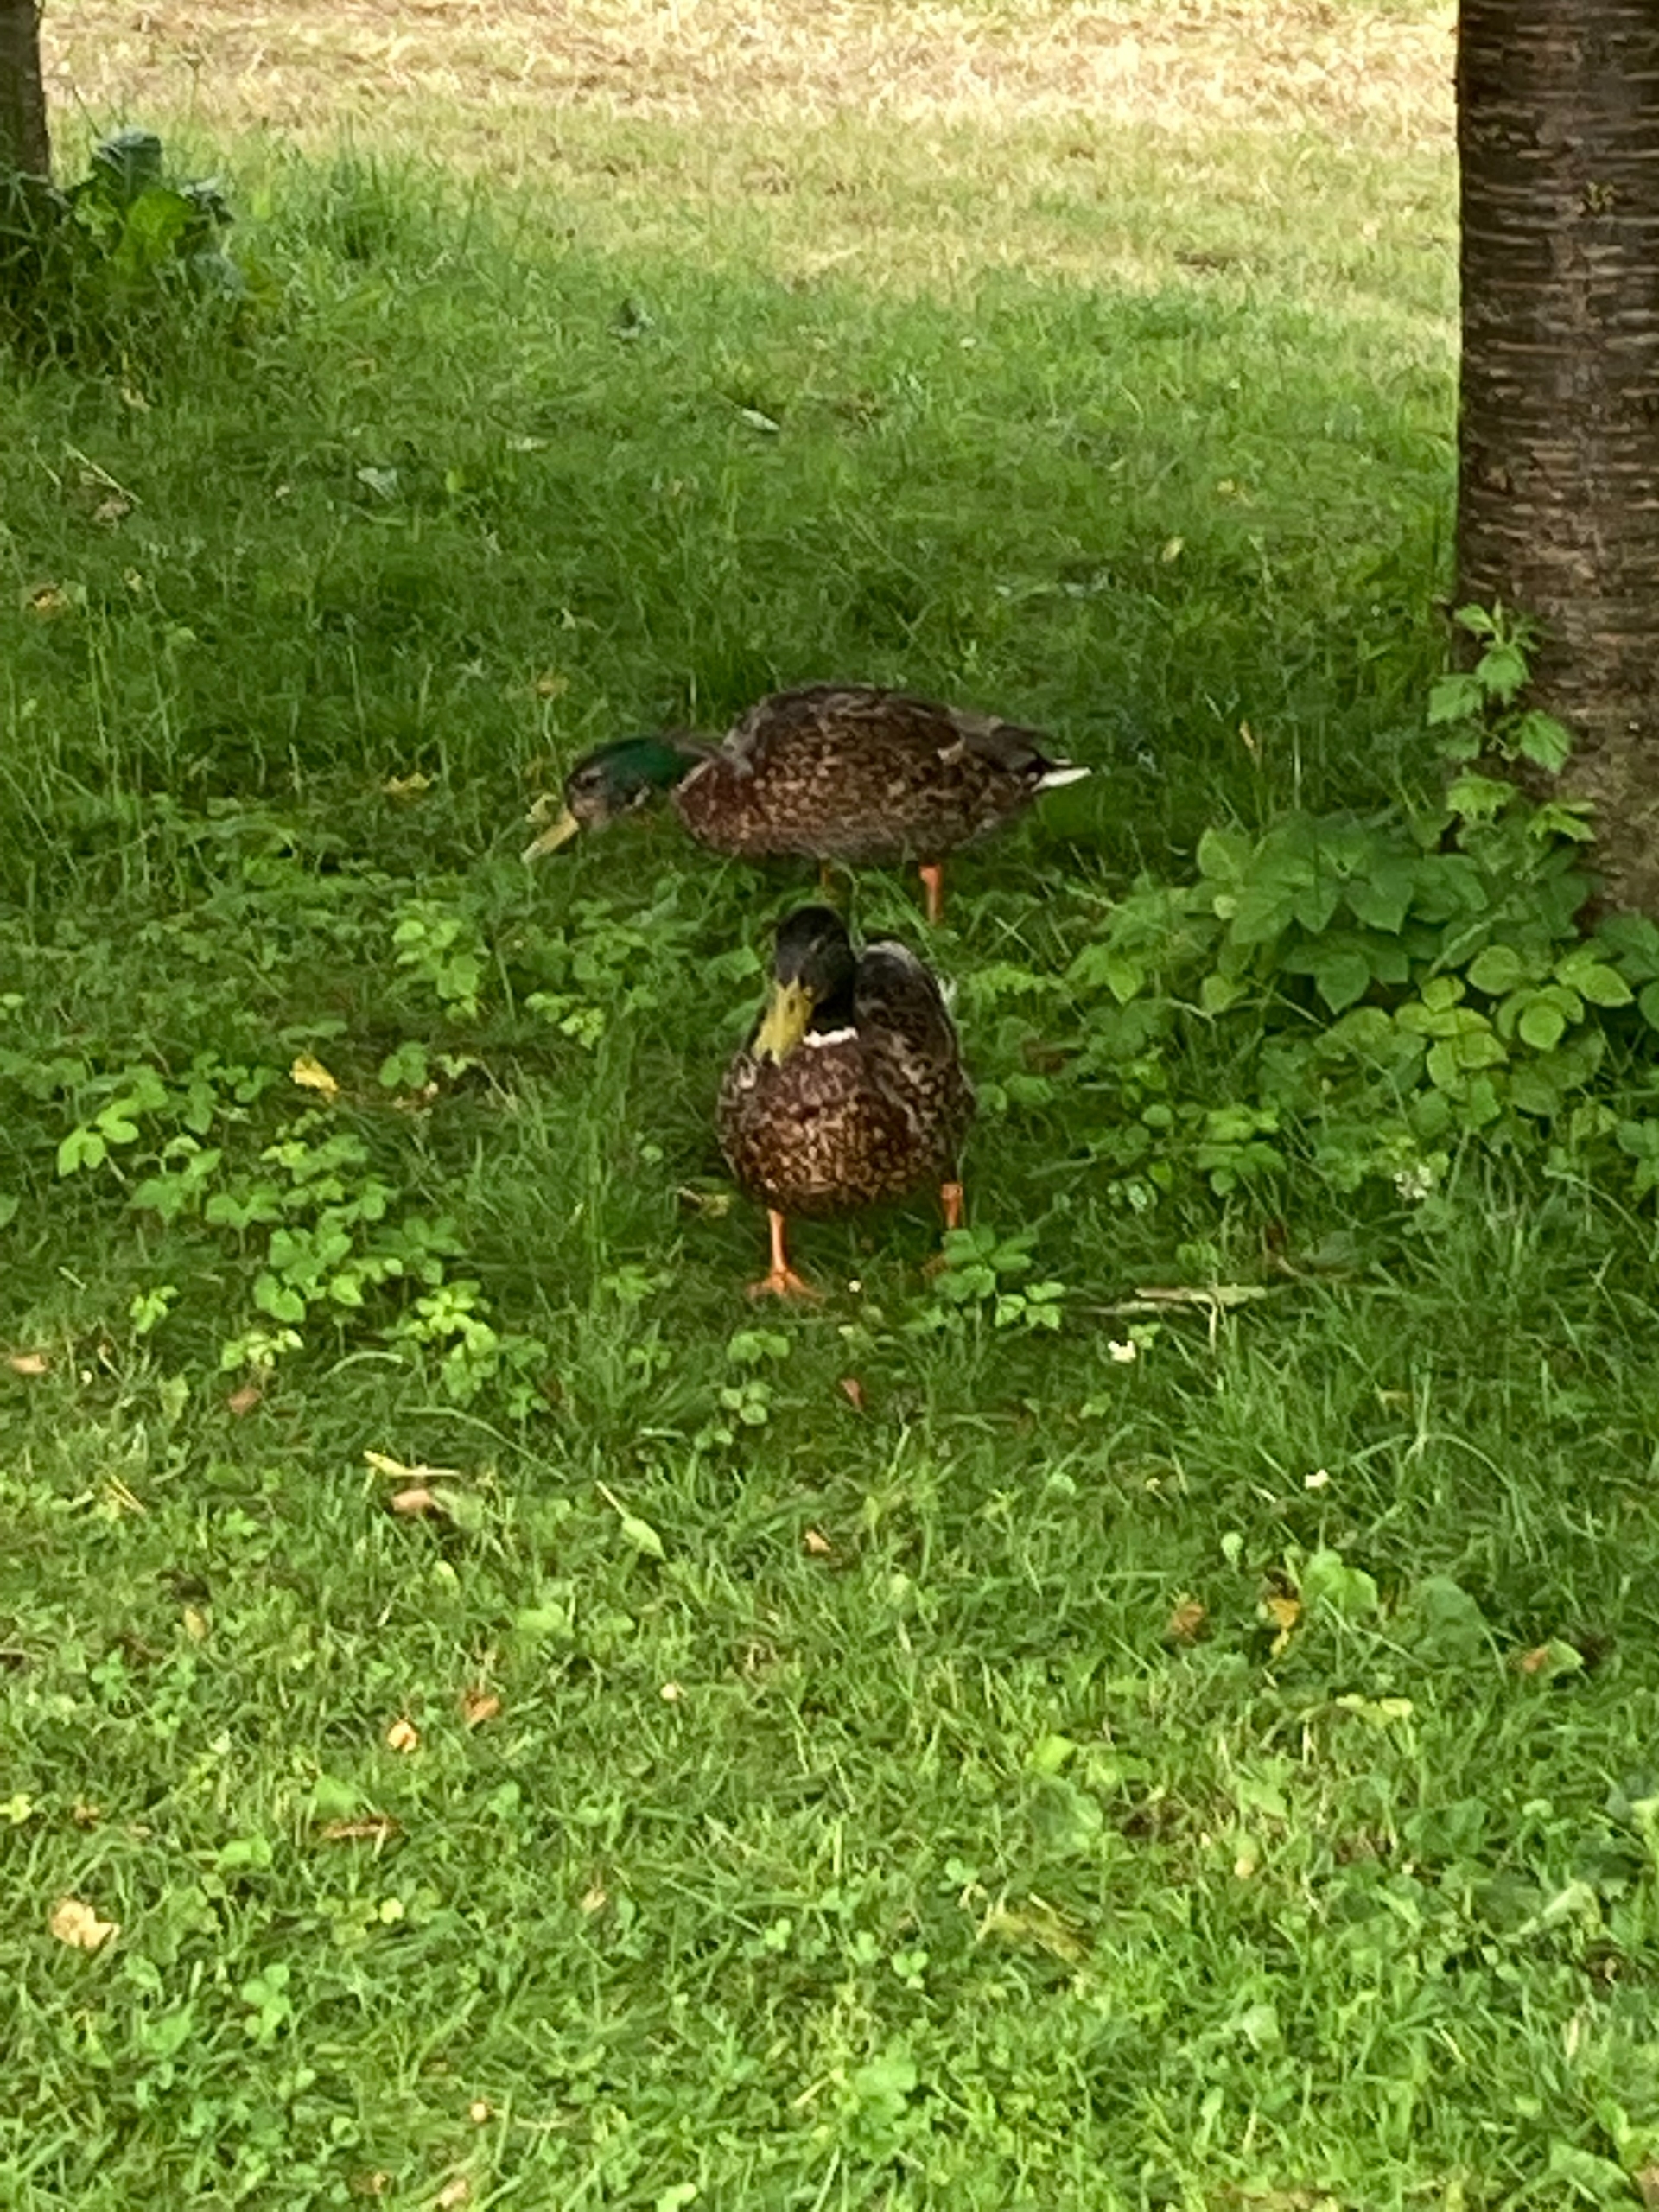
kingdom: Animalia
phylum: Chordata
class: Aves
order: Anseriformes
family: Anatidae
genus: Anas
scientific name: Anas platyrhynchos
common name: Gråand
